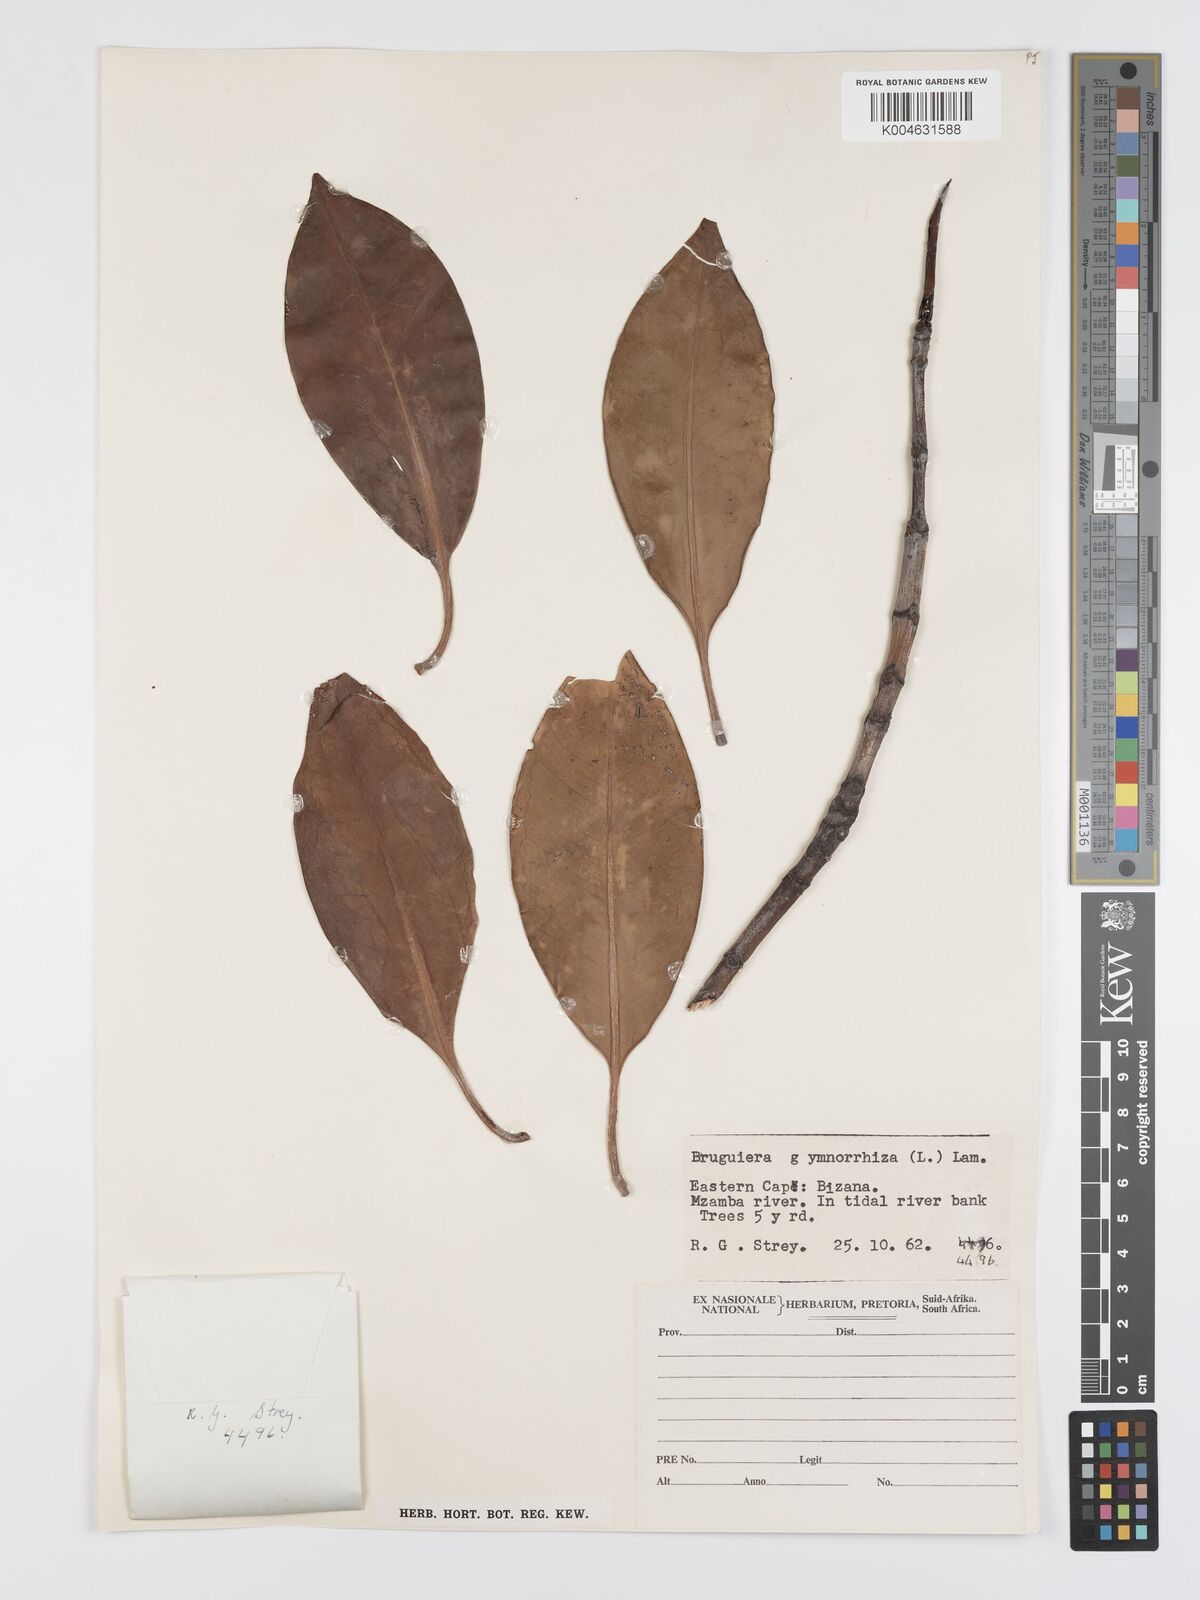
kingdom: Plantae
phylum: Tracheophyta
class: Magnoliopsida
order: Malpighiales
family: Rhizophoraceae
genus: Bruguiera
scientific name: Bruguiera gymnorhiza
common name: Oriental mangrove
